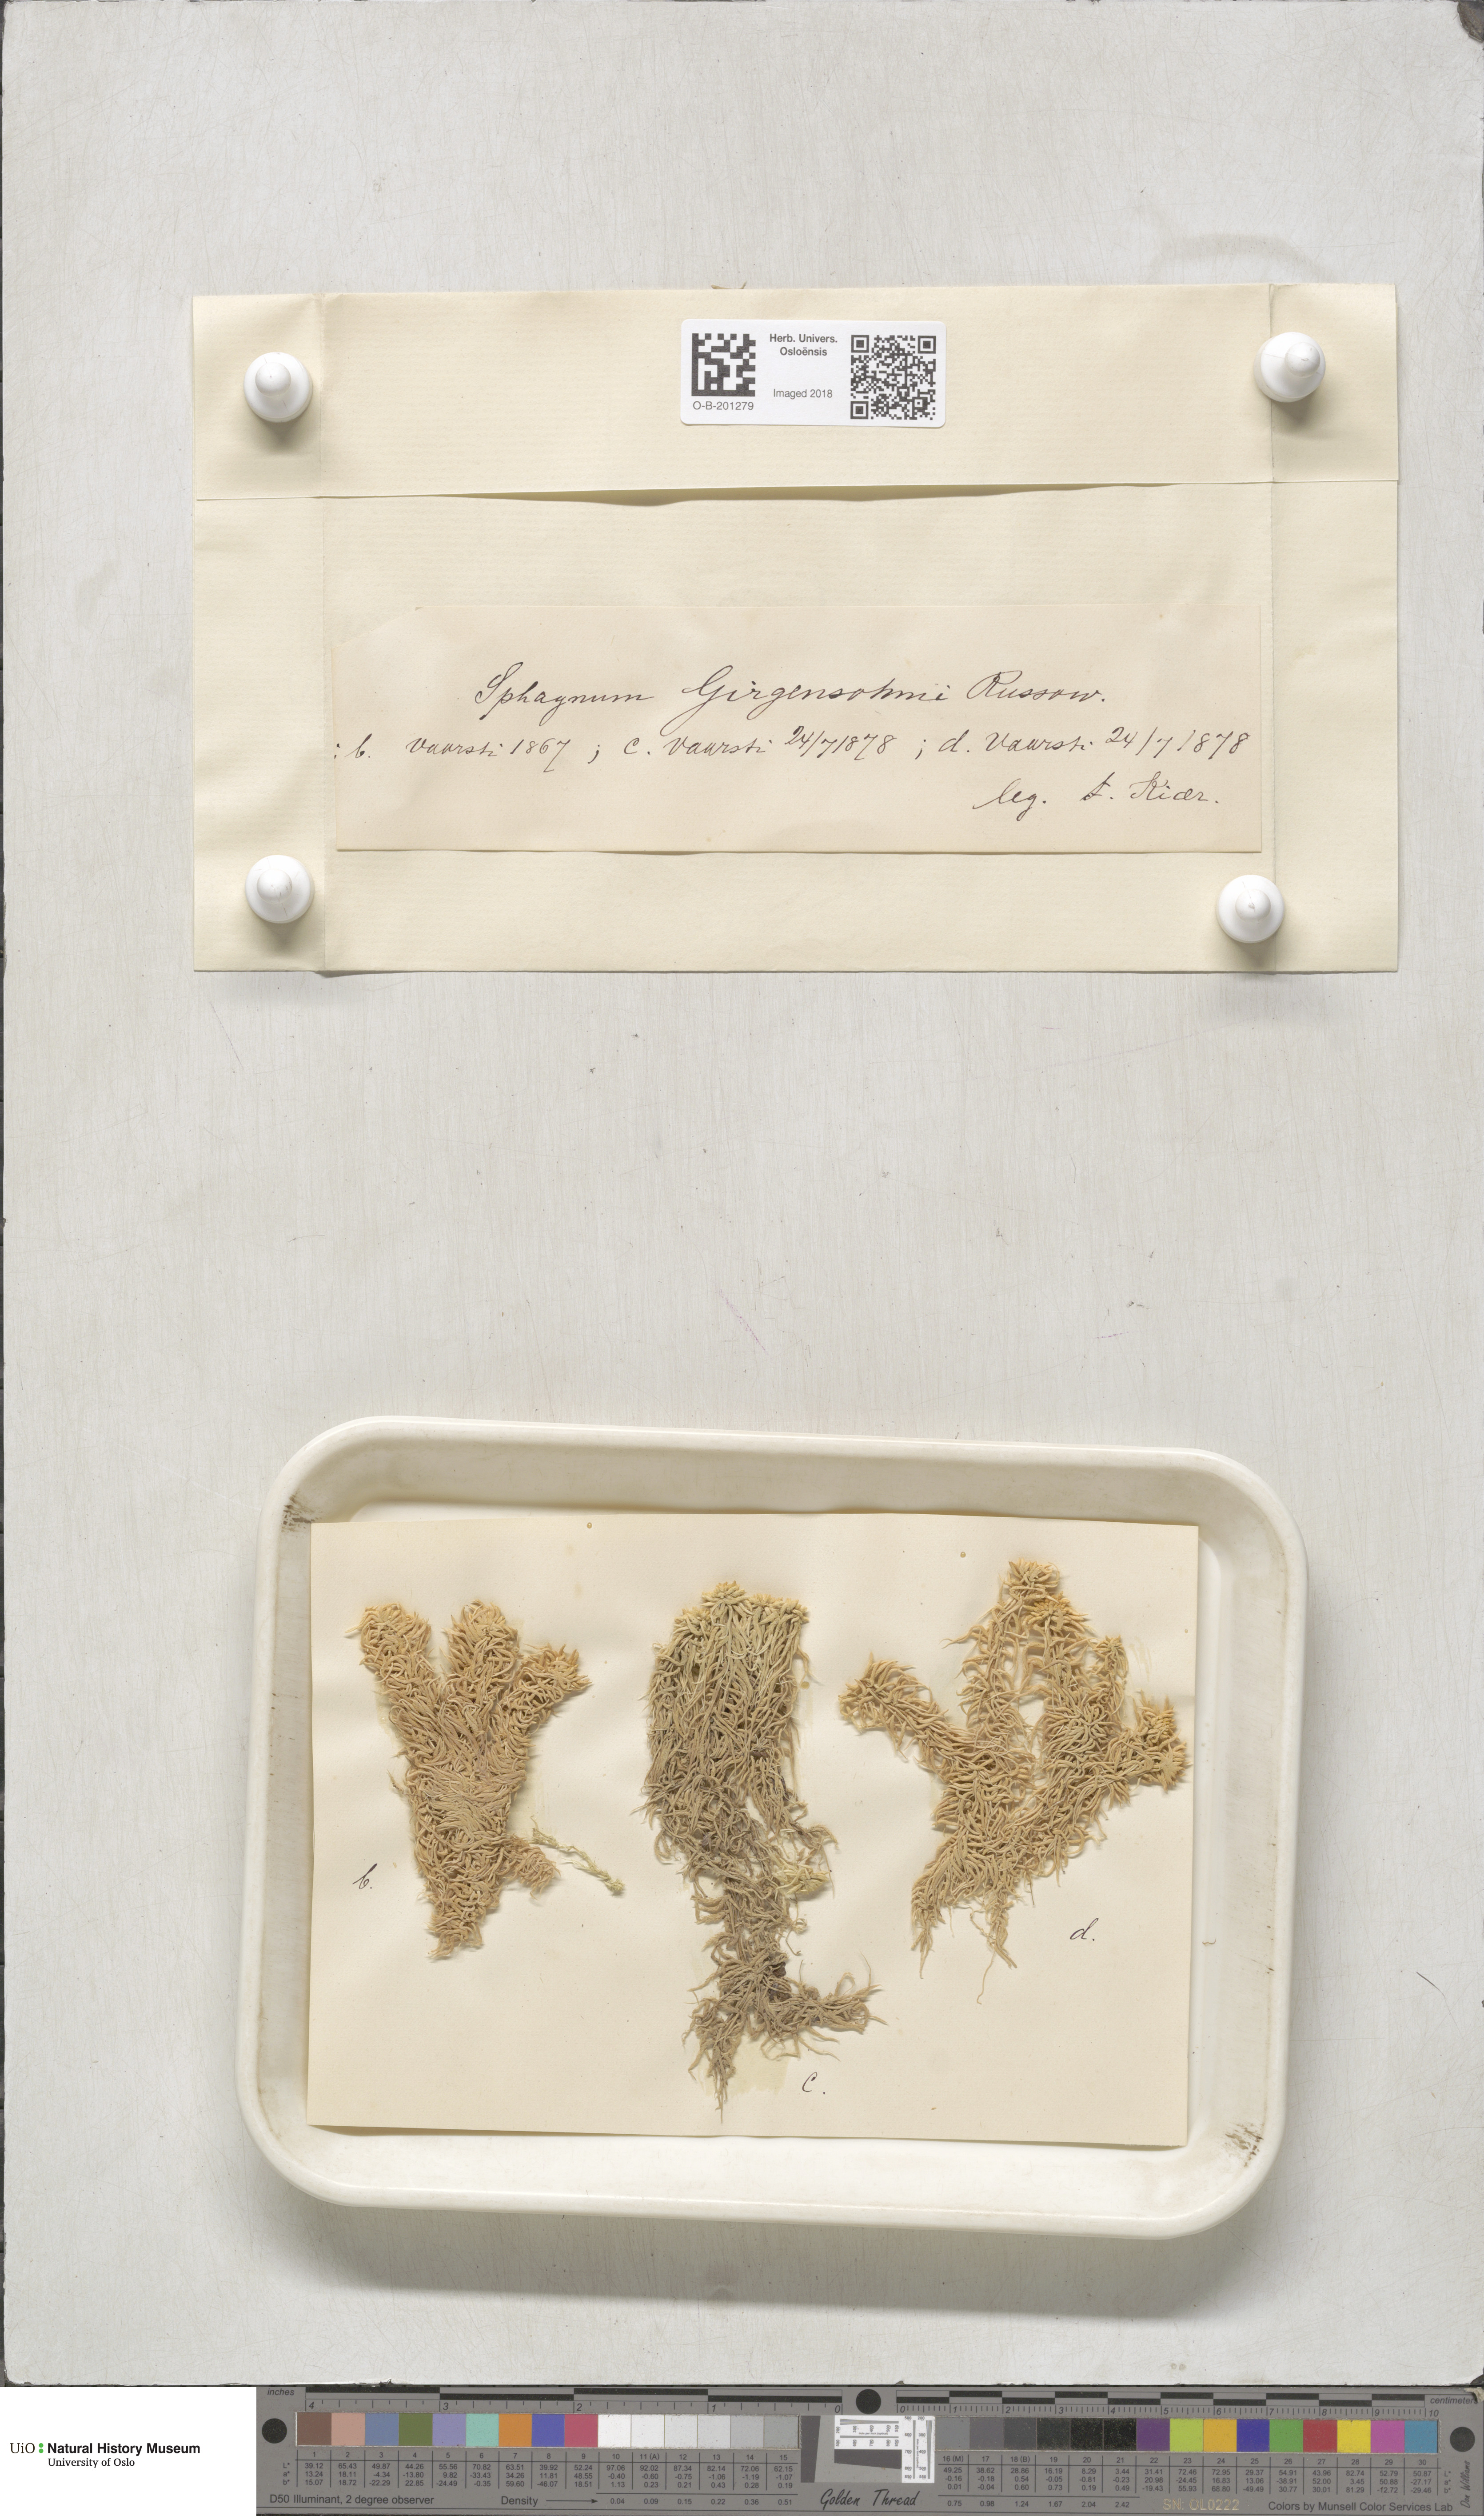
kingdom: Plantae
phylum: Bryophyta
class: Sphagnopsida
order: Sphagnales
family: Sphagnaceae
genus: Sphagnum
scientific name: Sphagnum girgensohnii
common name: Girgensohn's peat moss
